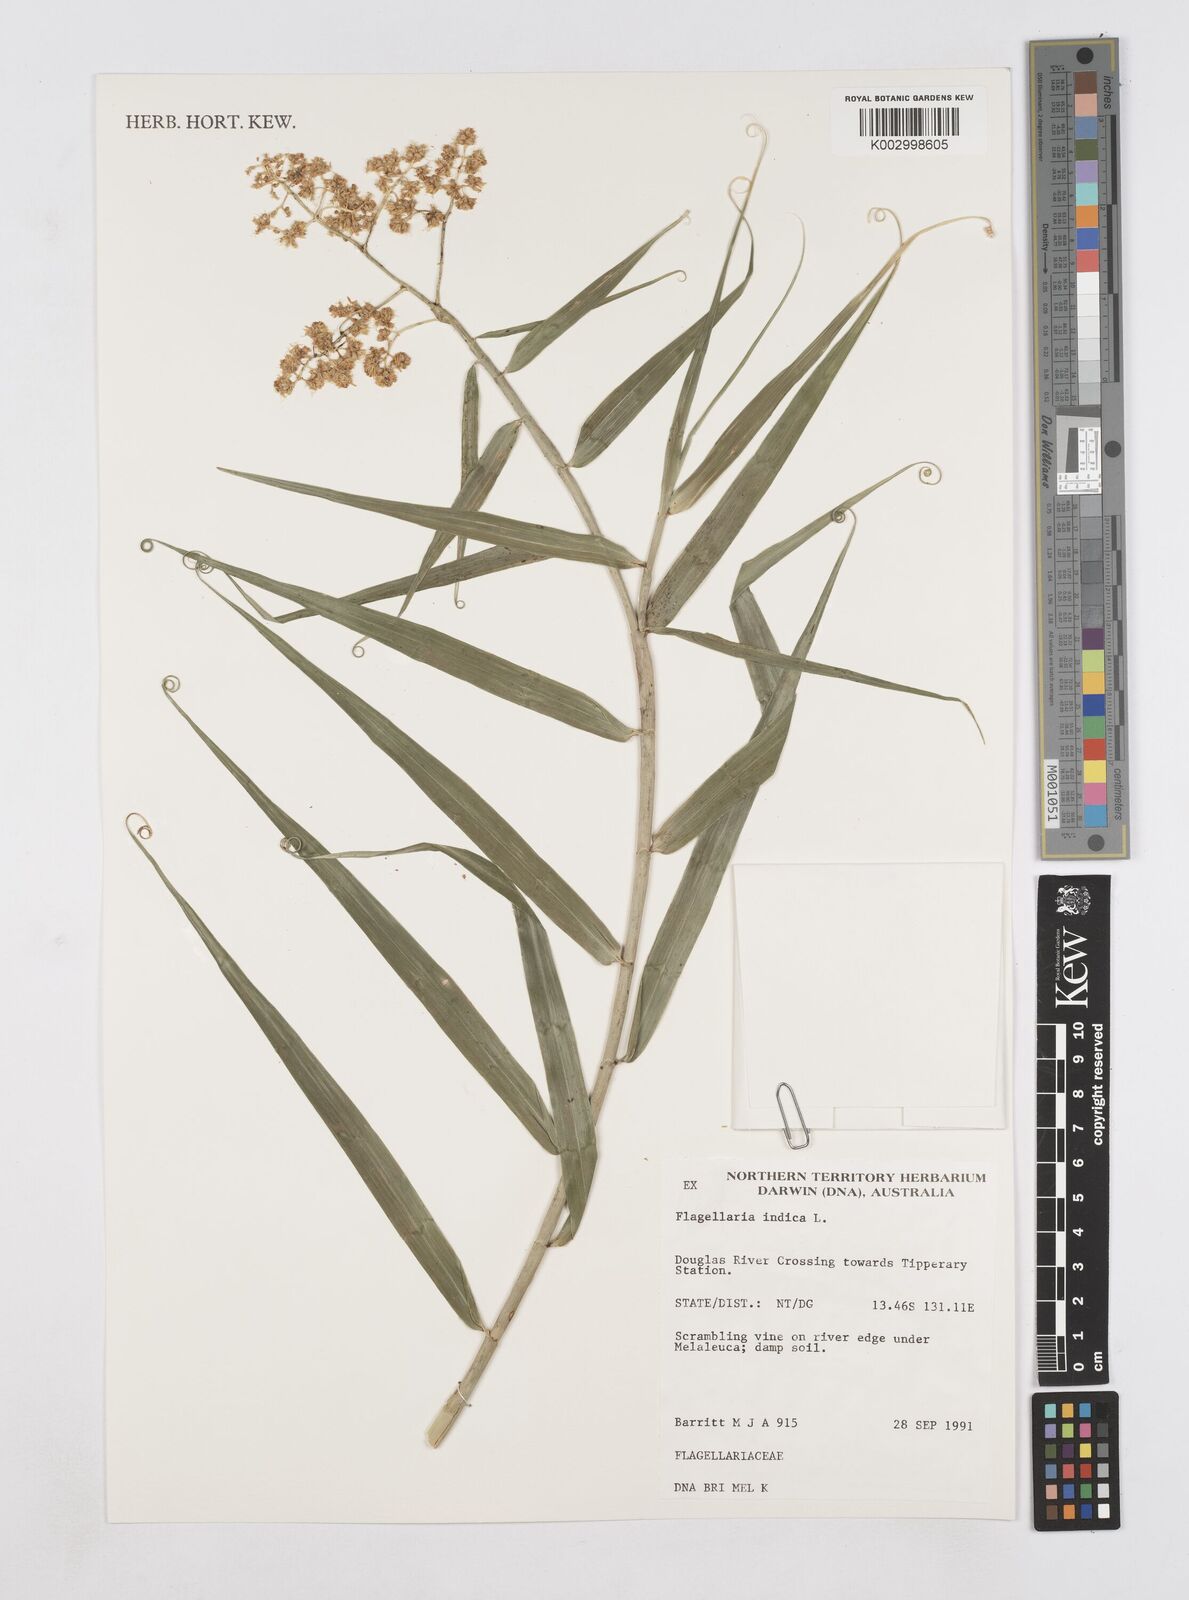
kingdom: Plantae
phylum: Tracheophyta
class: Liliopsida
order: Poales
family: Flagellariaceae
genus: Flagellaria
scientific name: Flagellaria indica
